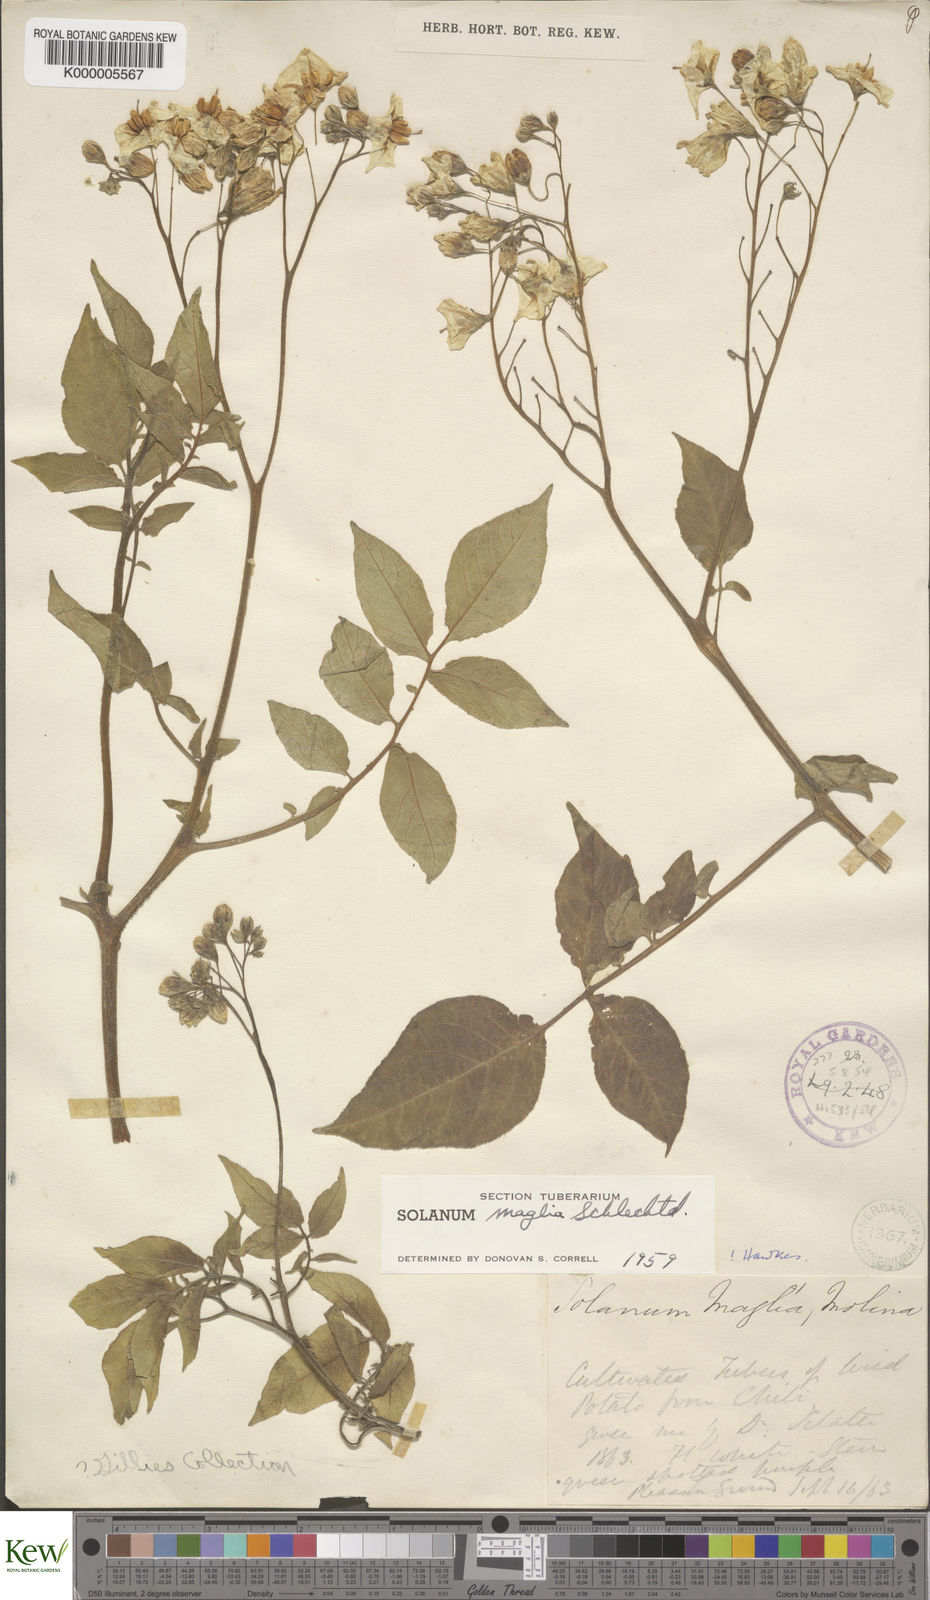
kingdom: Plantae
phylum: Tracheophyta
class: Magnoliopsida
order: Solanales
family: Solanaceae
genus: Solanum
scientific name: Solanum maglia
